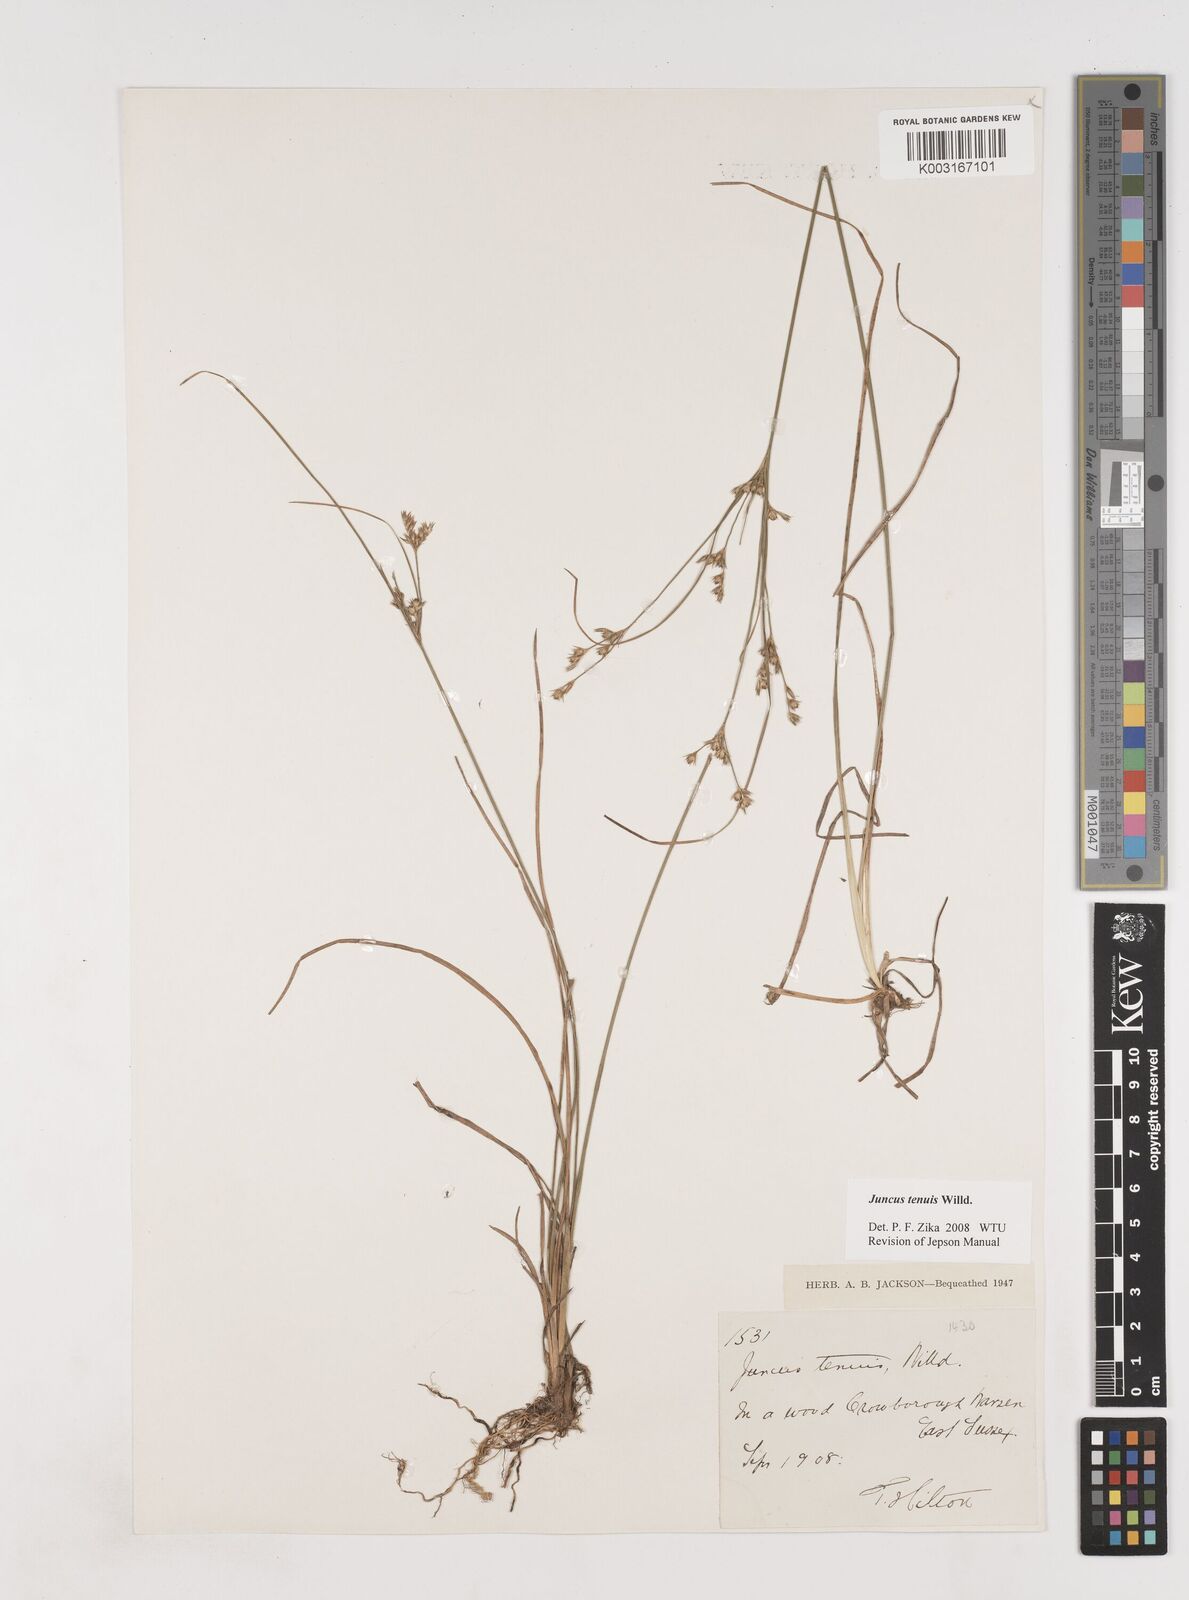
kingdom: Plantae
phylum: Tracheophyta
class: Liliopsida
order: Poales
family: Juncaceae
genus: Juncus
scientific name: Juncus tenuis
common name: Slender rush
